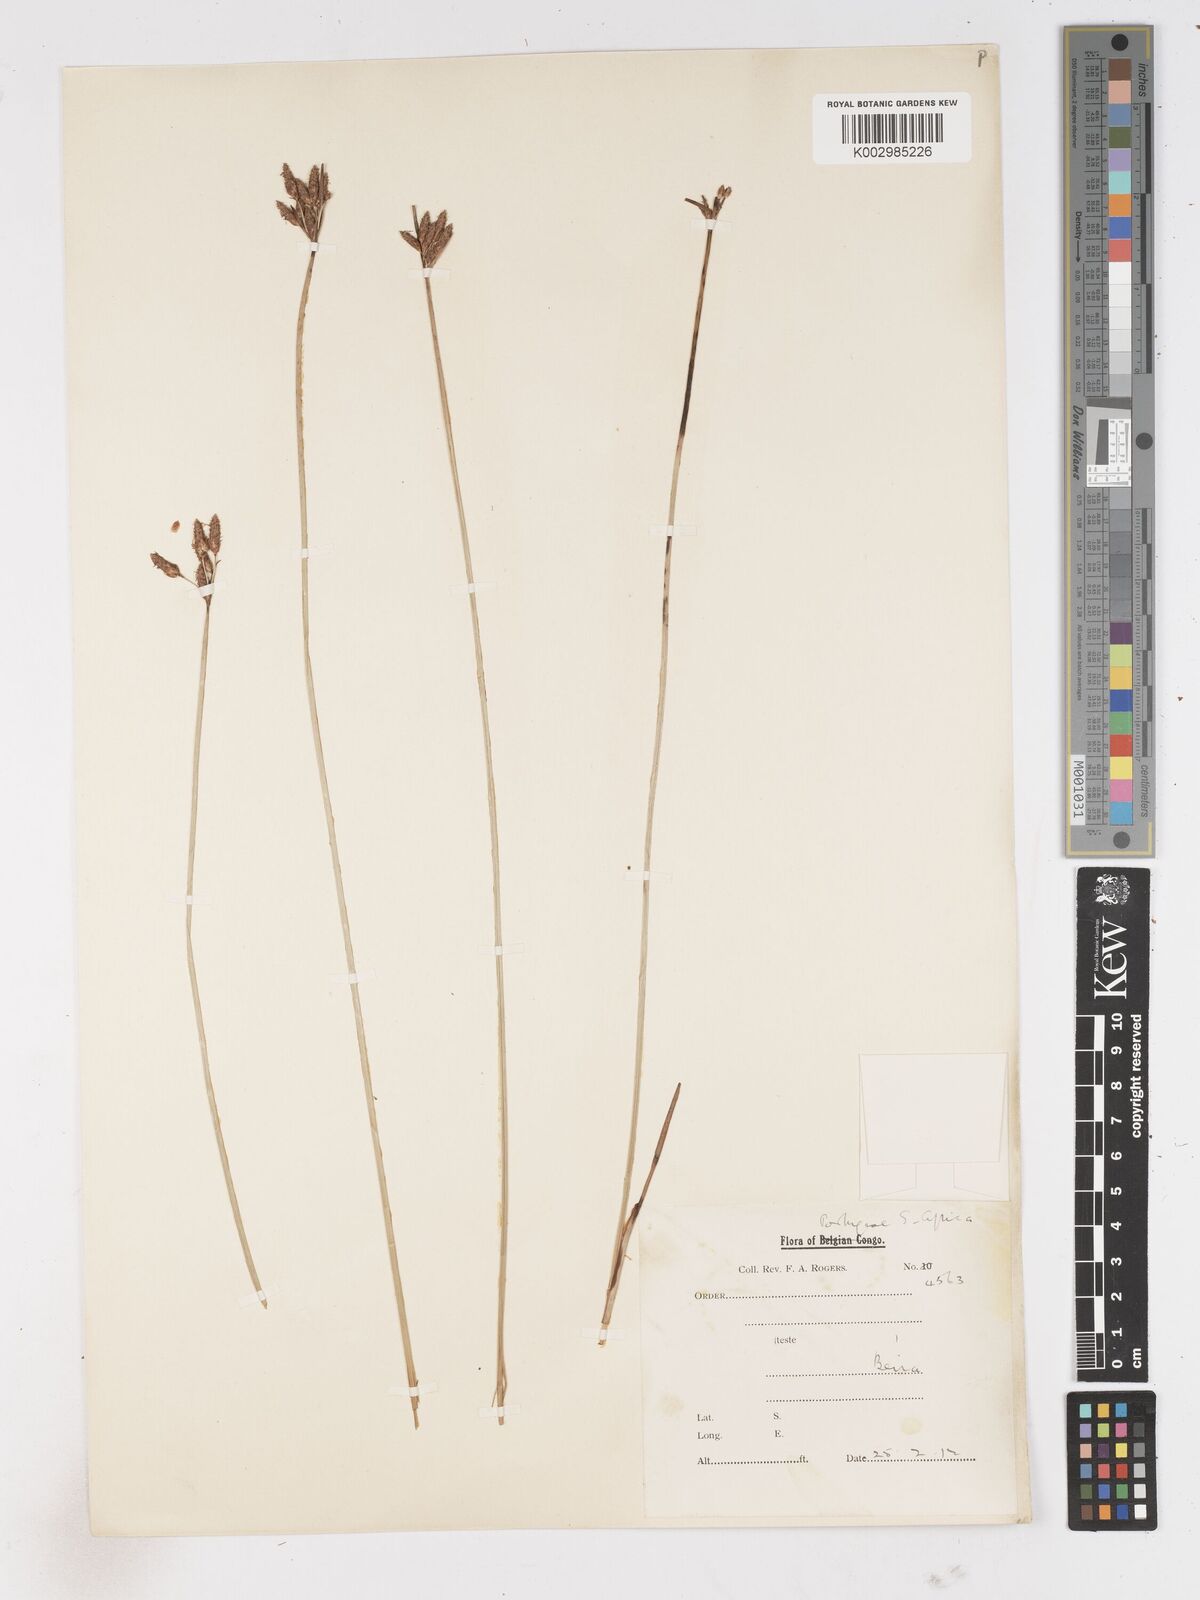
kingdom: Plantae
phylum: Tracheophyta
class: Liliopsida
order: Poales
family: Cyperaceae
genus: Fimbristylis
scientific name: Fimbristylis ferruginea
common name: West indian fimbry
